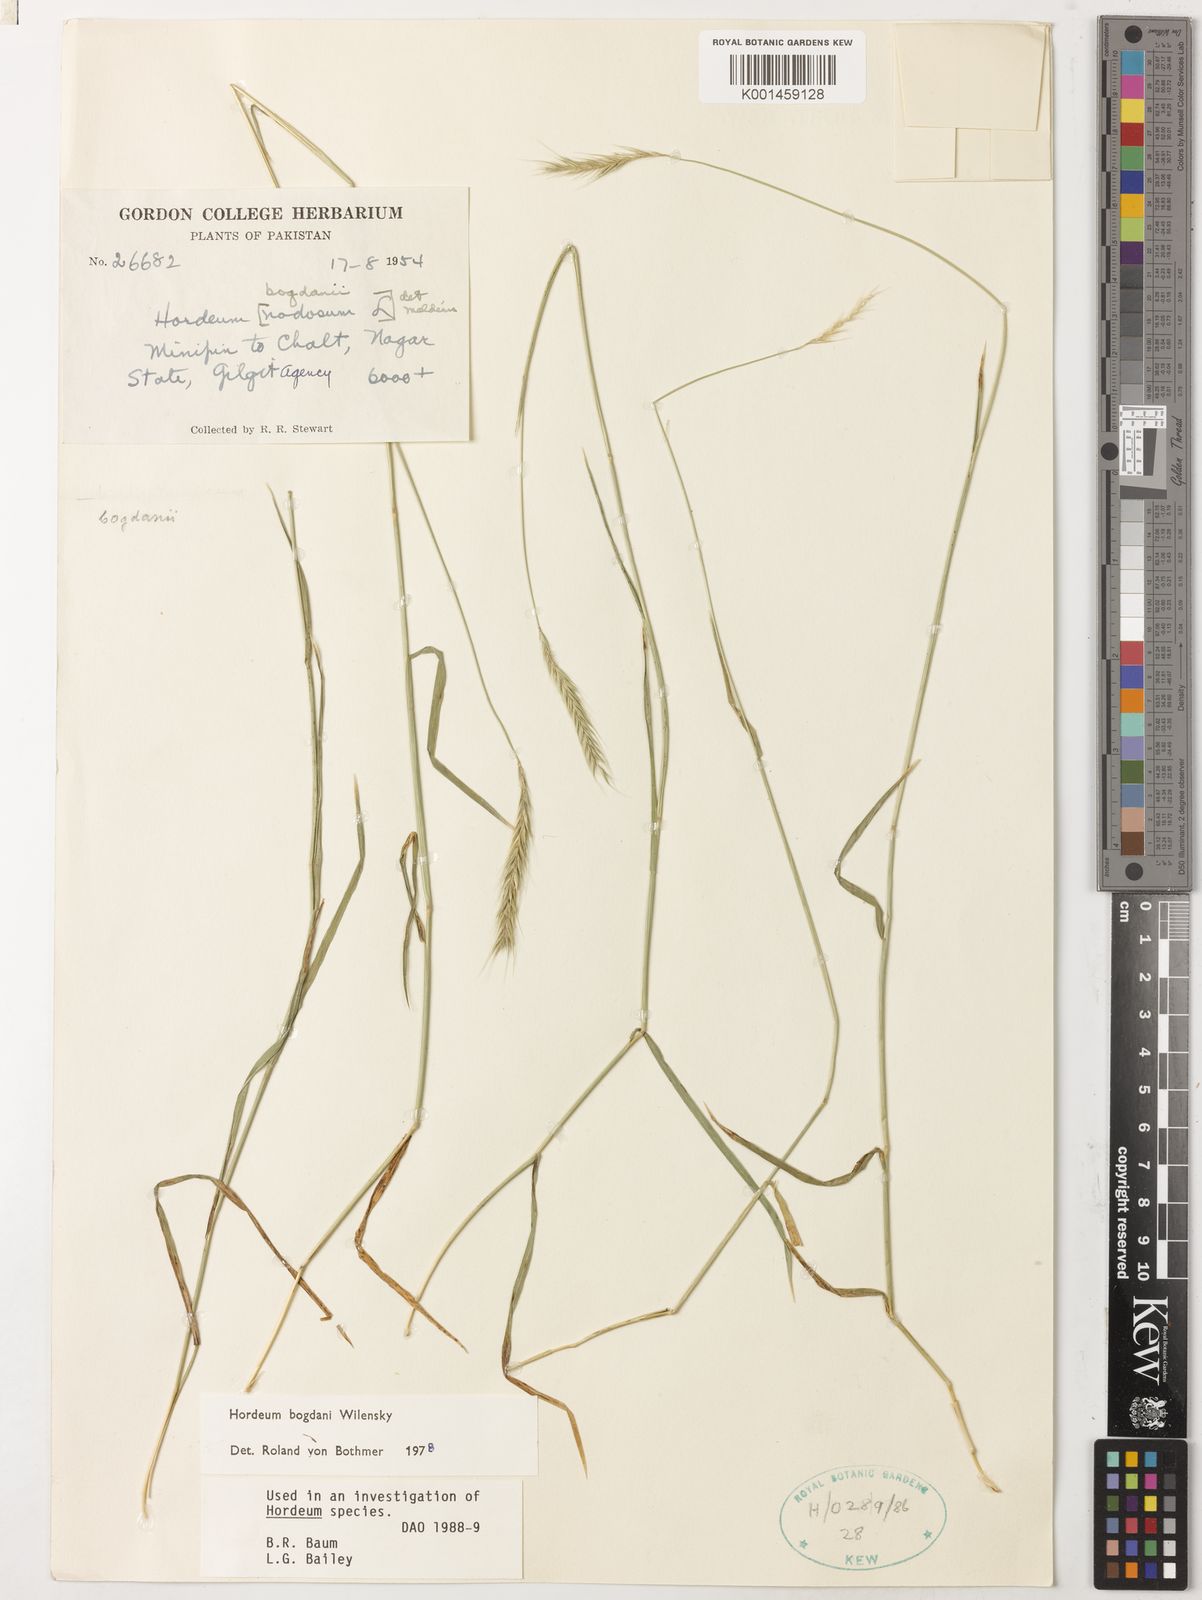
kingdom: Plantae
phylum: Tracheophyta
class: Liliopsida
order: Poales
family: Poaceae
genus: Hordeum
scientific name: Hordeum bogdanii
